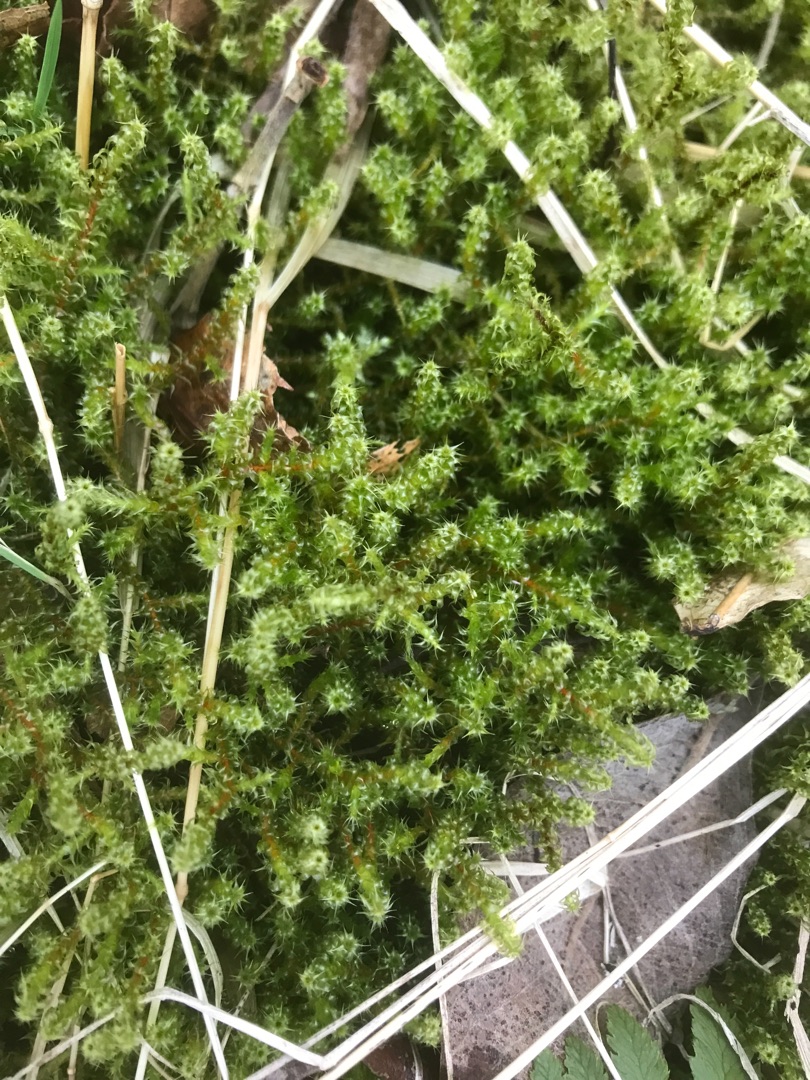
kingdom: Plantae
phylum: Bryophyta
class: Bryopsida
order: Hypnales
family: Hylocomiaceae
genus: Rhytidiadelphus
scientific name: Rhytidiadelphus squarrosus
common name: Plæne-kransemos
